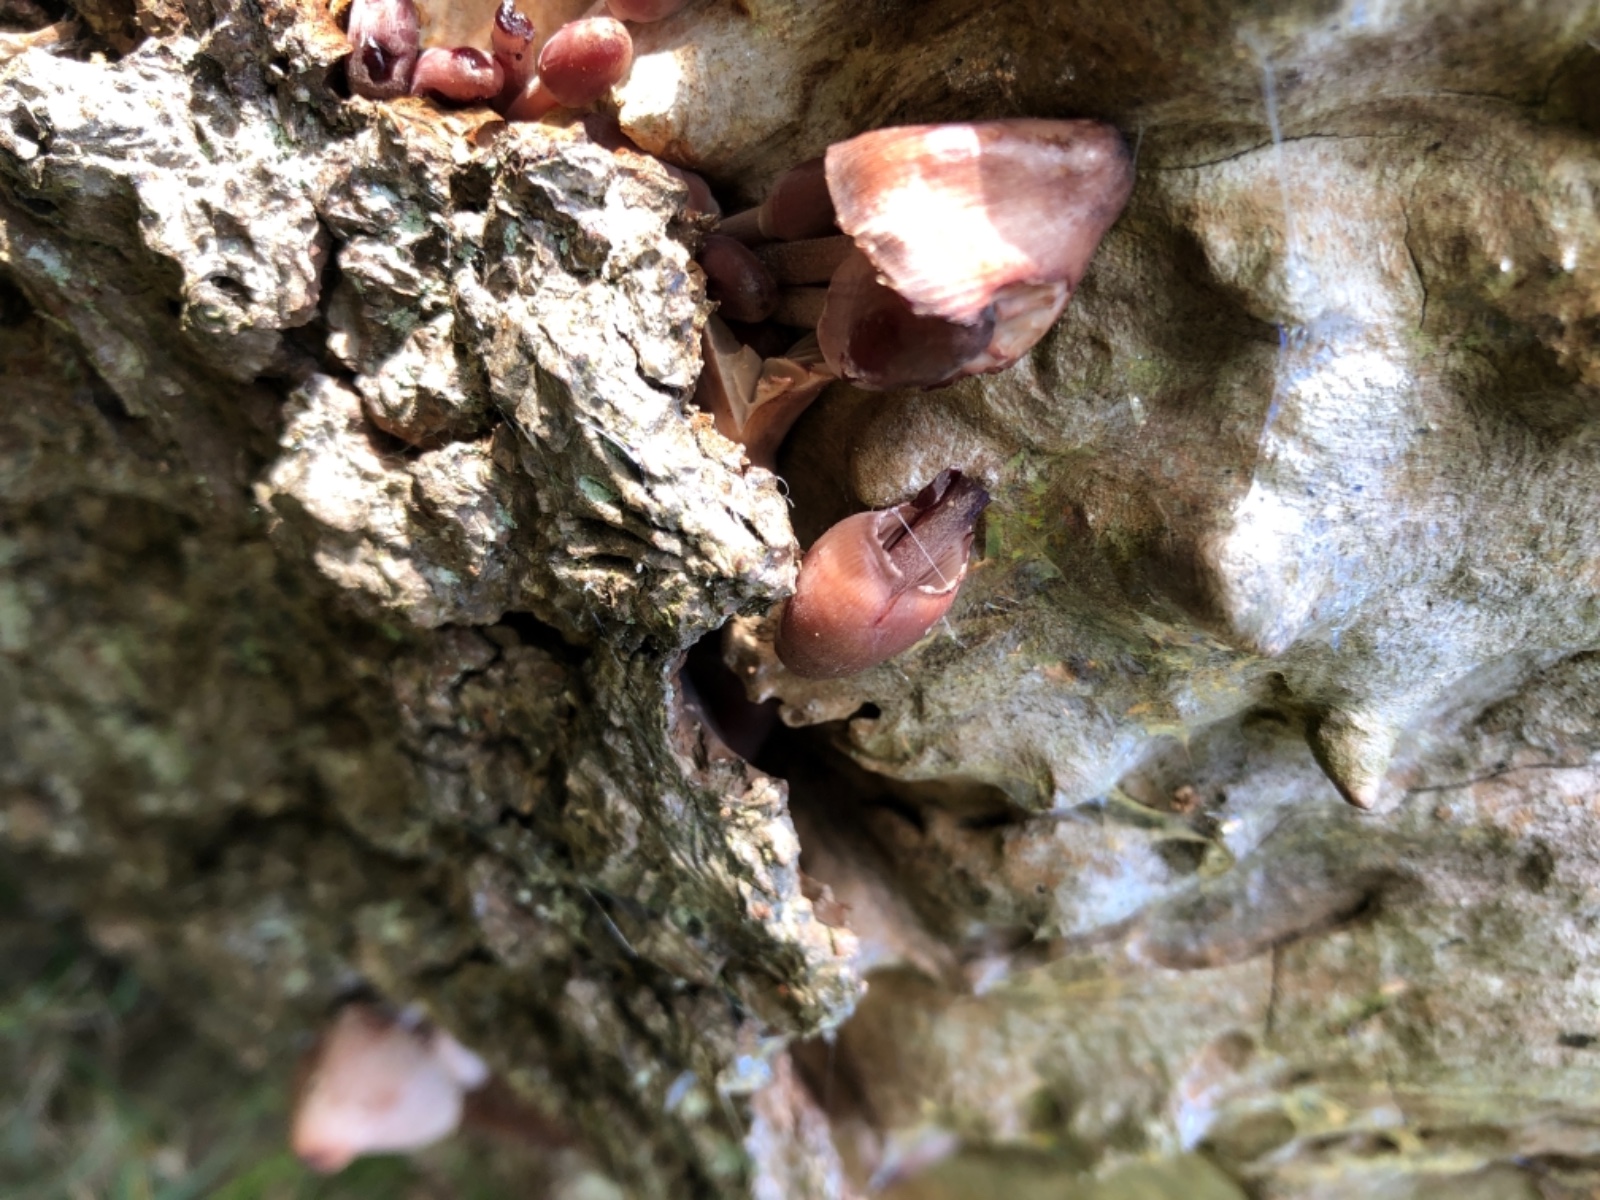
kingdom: Fungi
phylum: Basidiomycota
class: Agaricomycetes
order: Agaricales
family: Mycenaceae
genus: Mycena
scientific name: Mycena haematopus
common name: blødende huesvamp
